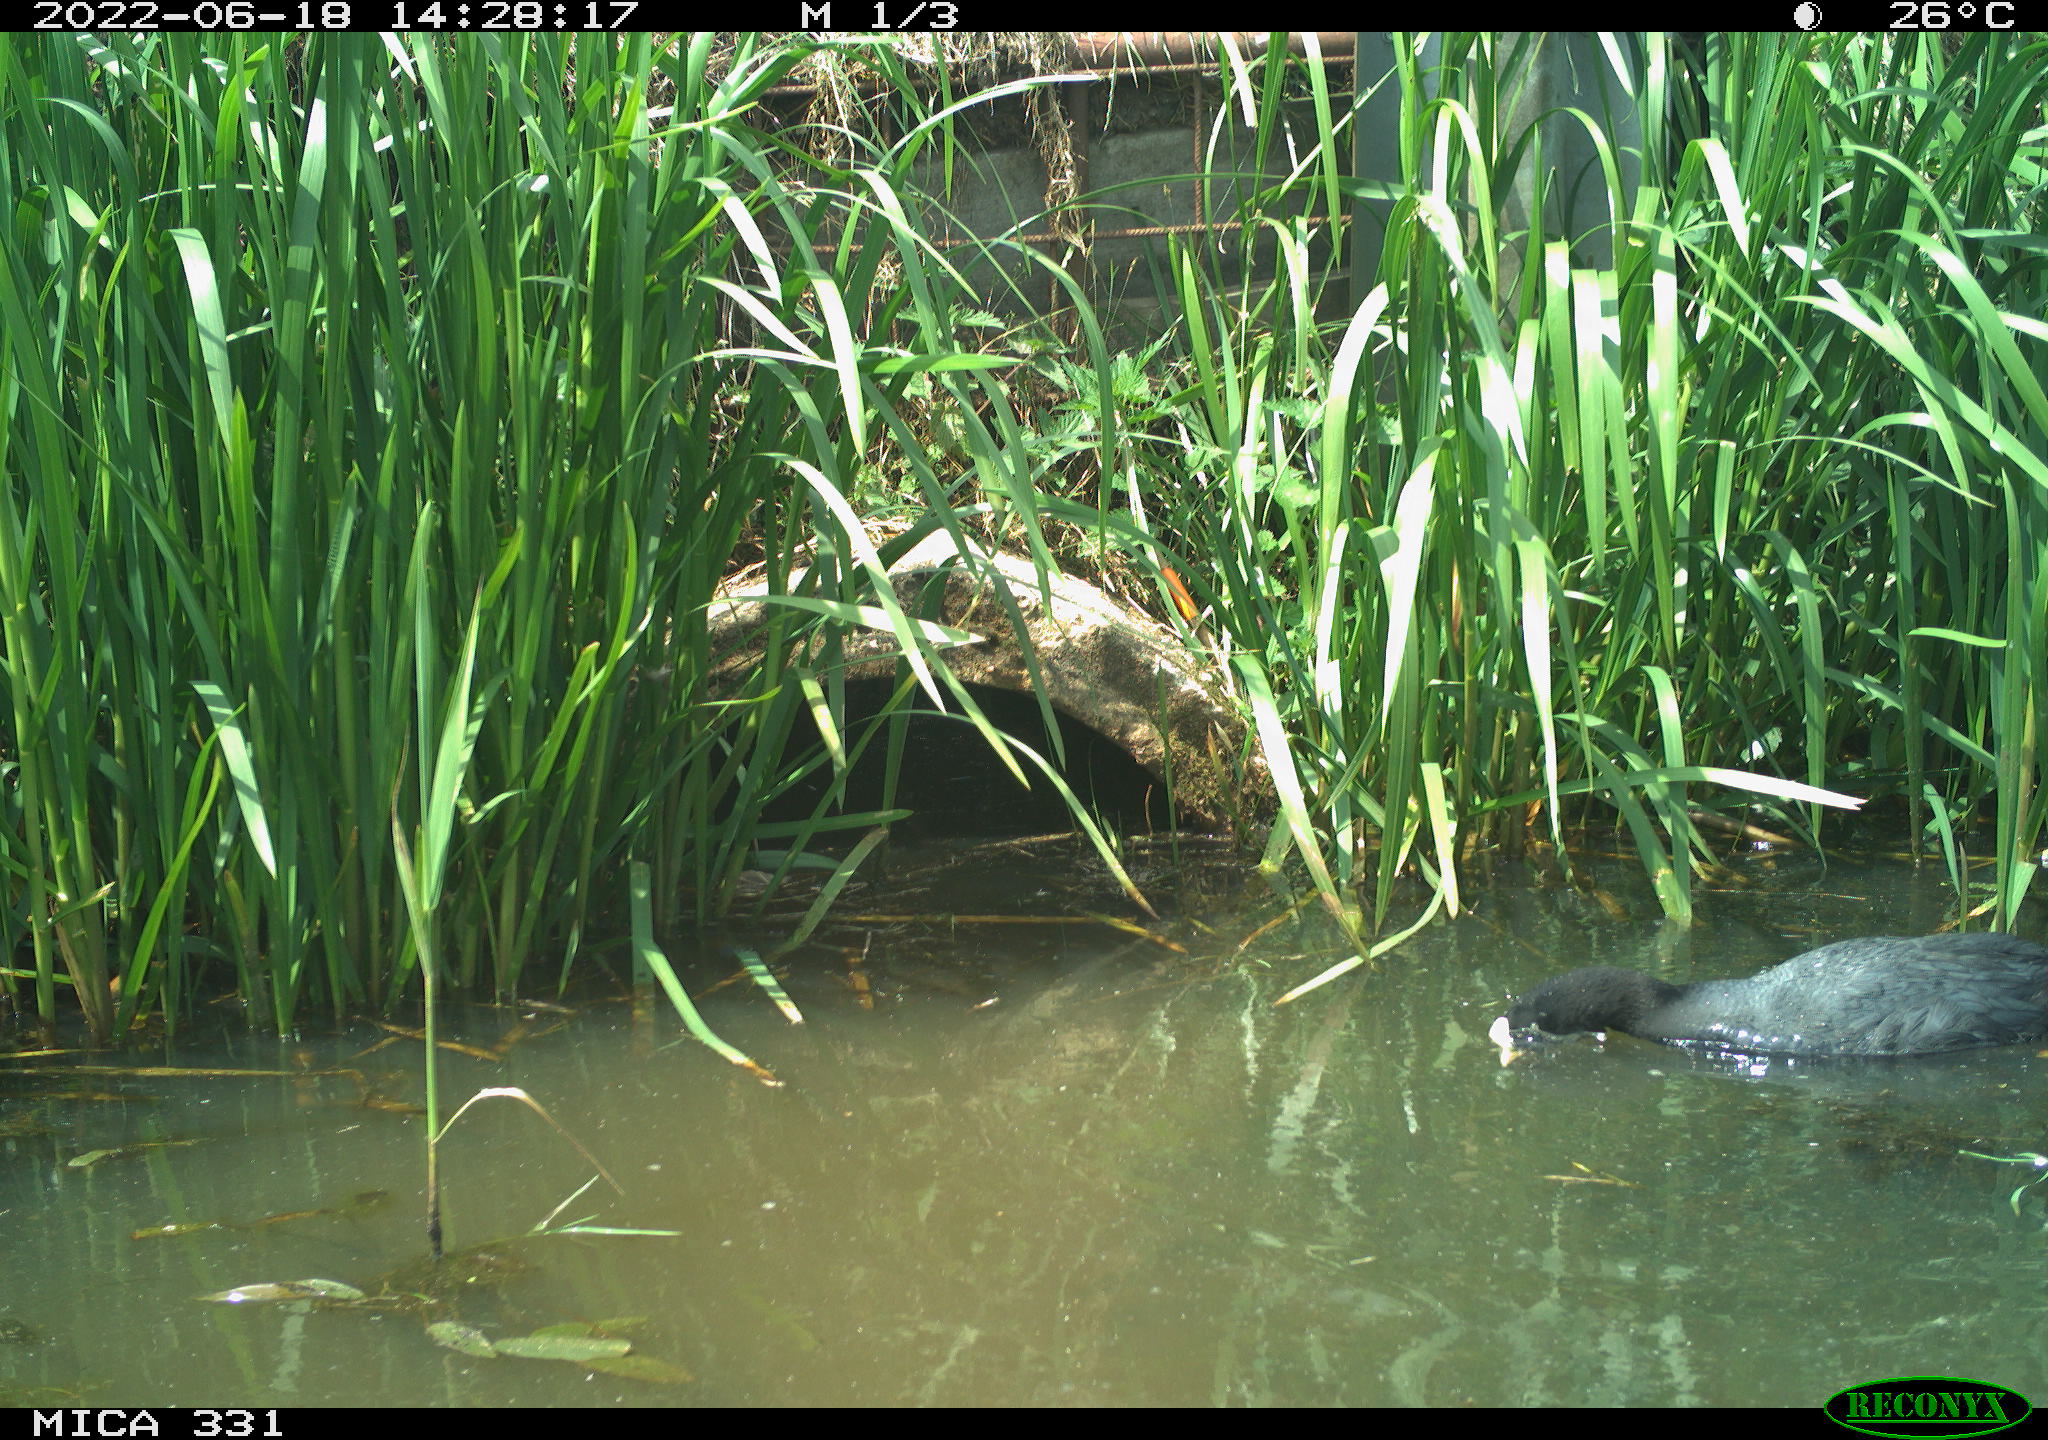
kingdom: Animalia
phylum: Chordata
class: Aves
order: Gruiformes
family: Rallidae
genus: Fulica
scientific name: Fulica atra
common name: Eurasian coot
